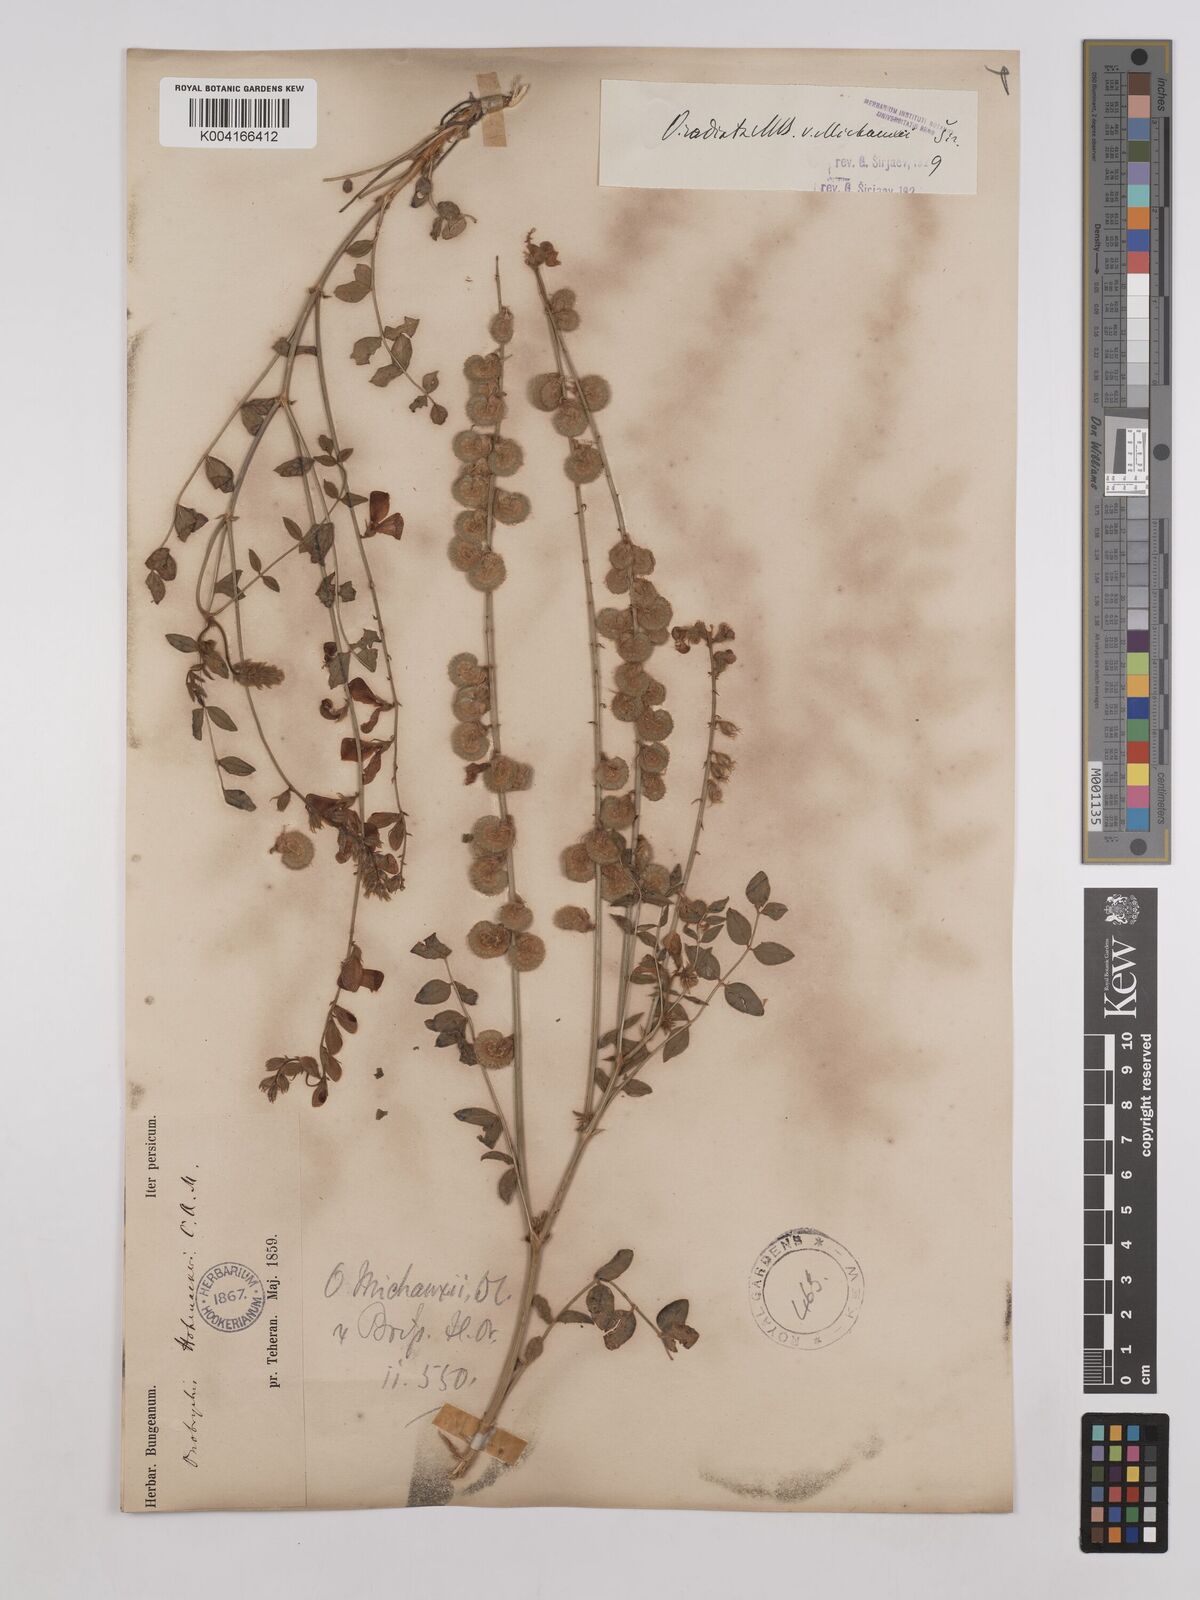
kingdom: Plantae
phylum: Tracheophyta
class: Magnoliopsida
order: Fabales
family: Fabaceae
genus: Onobrychis
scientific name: Onobrychis
